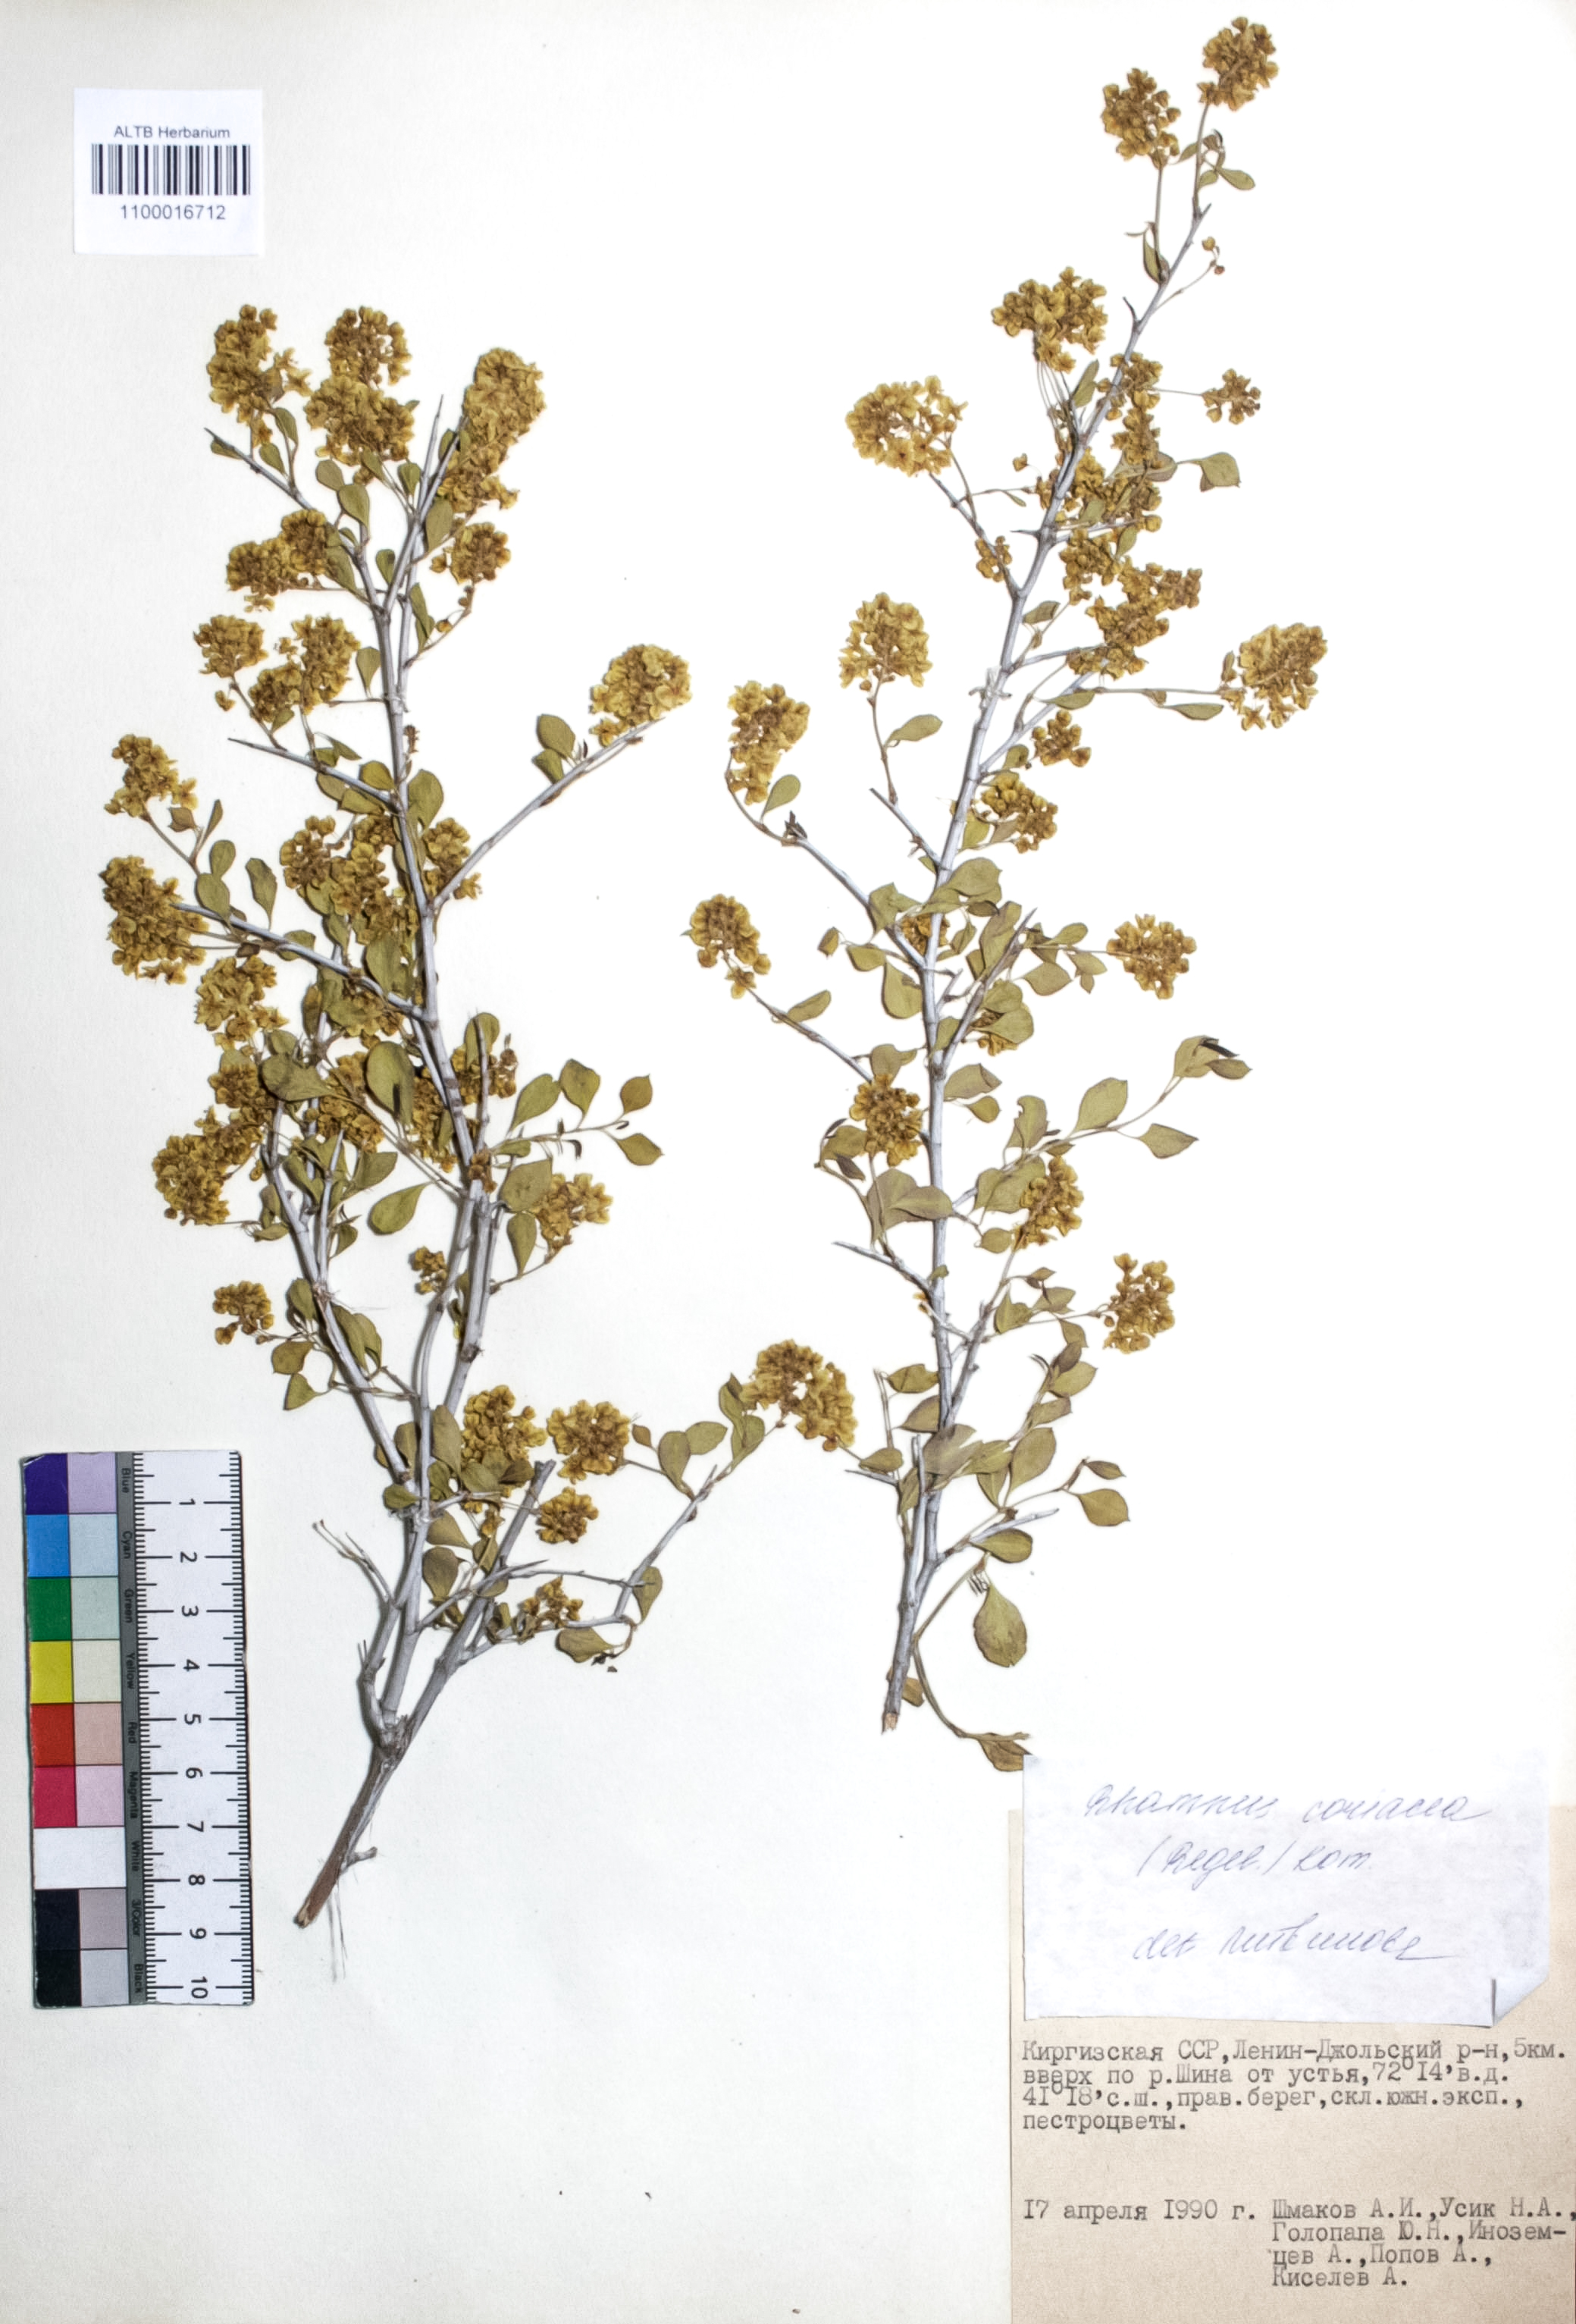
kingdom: Plantae
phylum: Tracheophyta
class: Magnoliopsida
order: Rosales
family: Rhamnaceae
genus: Rhamnus
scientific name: Rhamnus songorica
